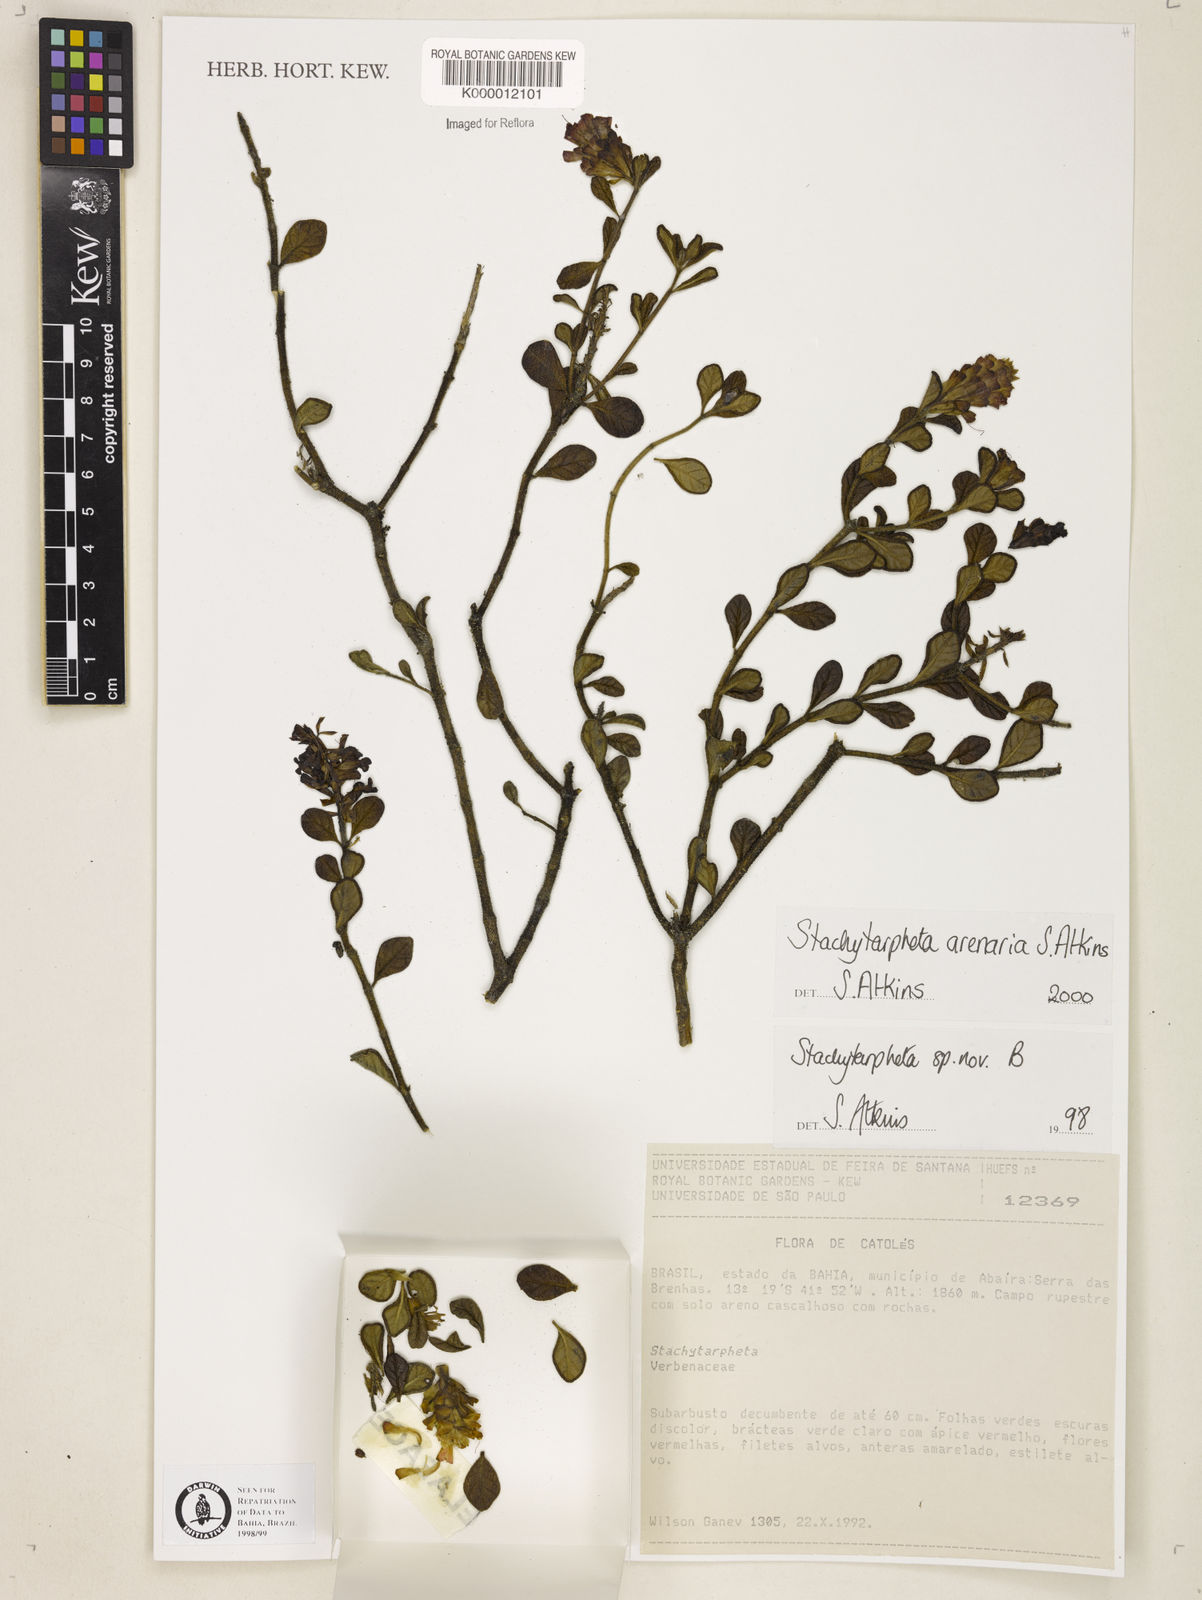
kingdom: Plantae
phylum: Tracheophyta
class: Magnoliopsida
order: Lamiales
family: Verbenaceae
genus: Stachytarpheta
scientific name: Stachytarpheta arenaria
